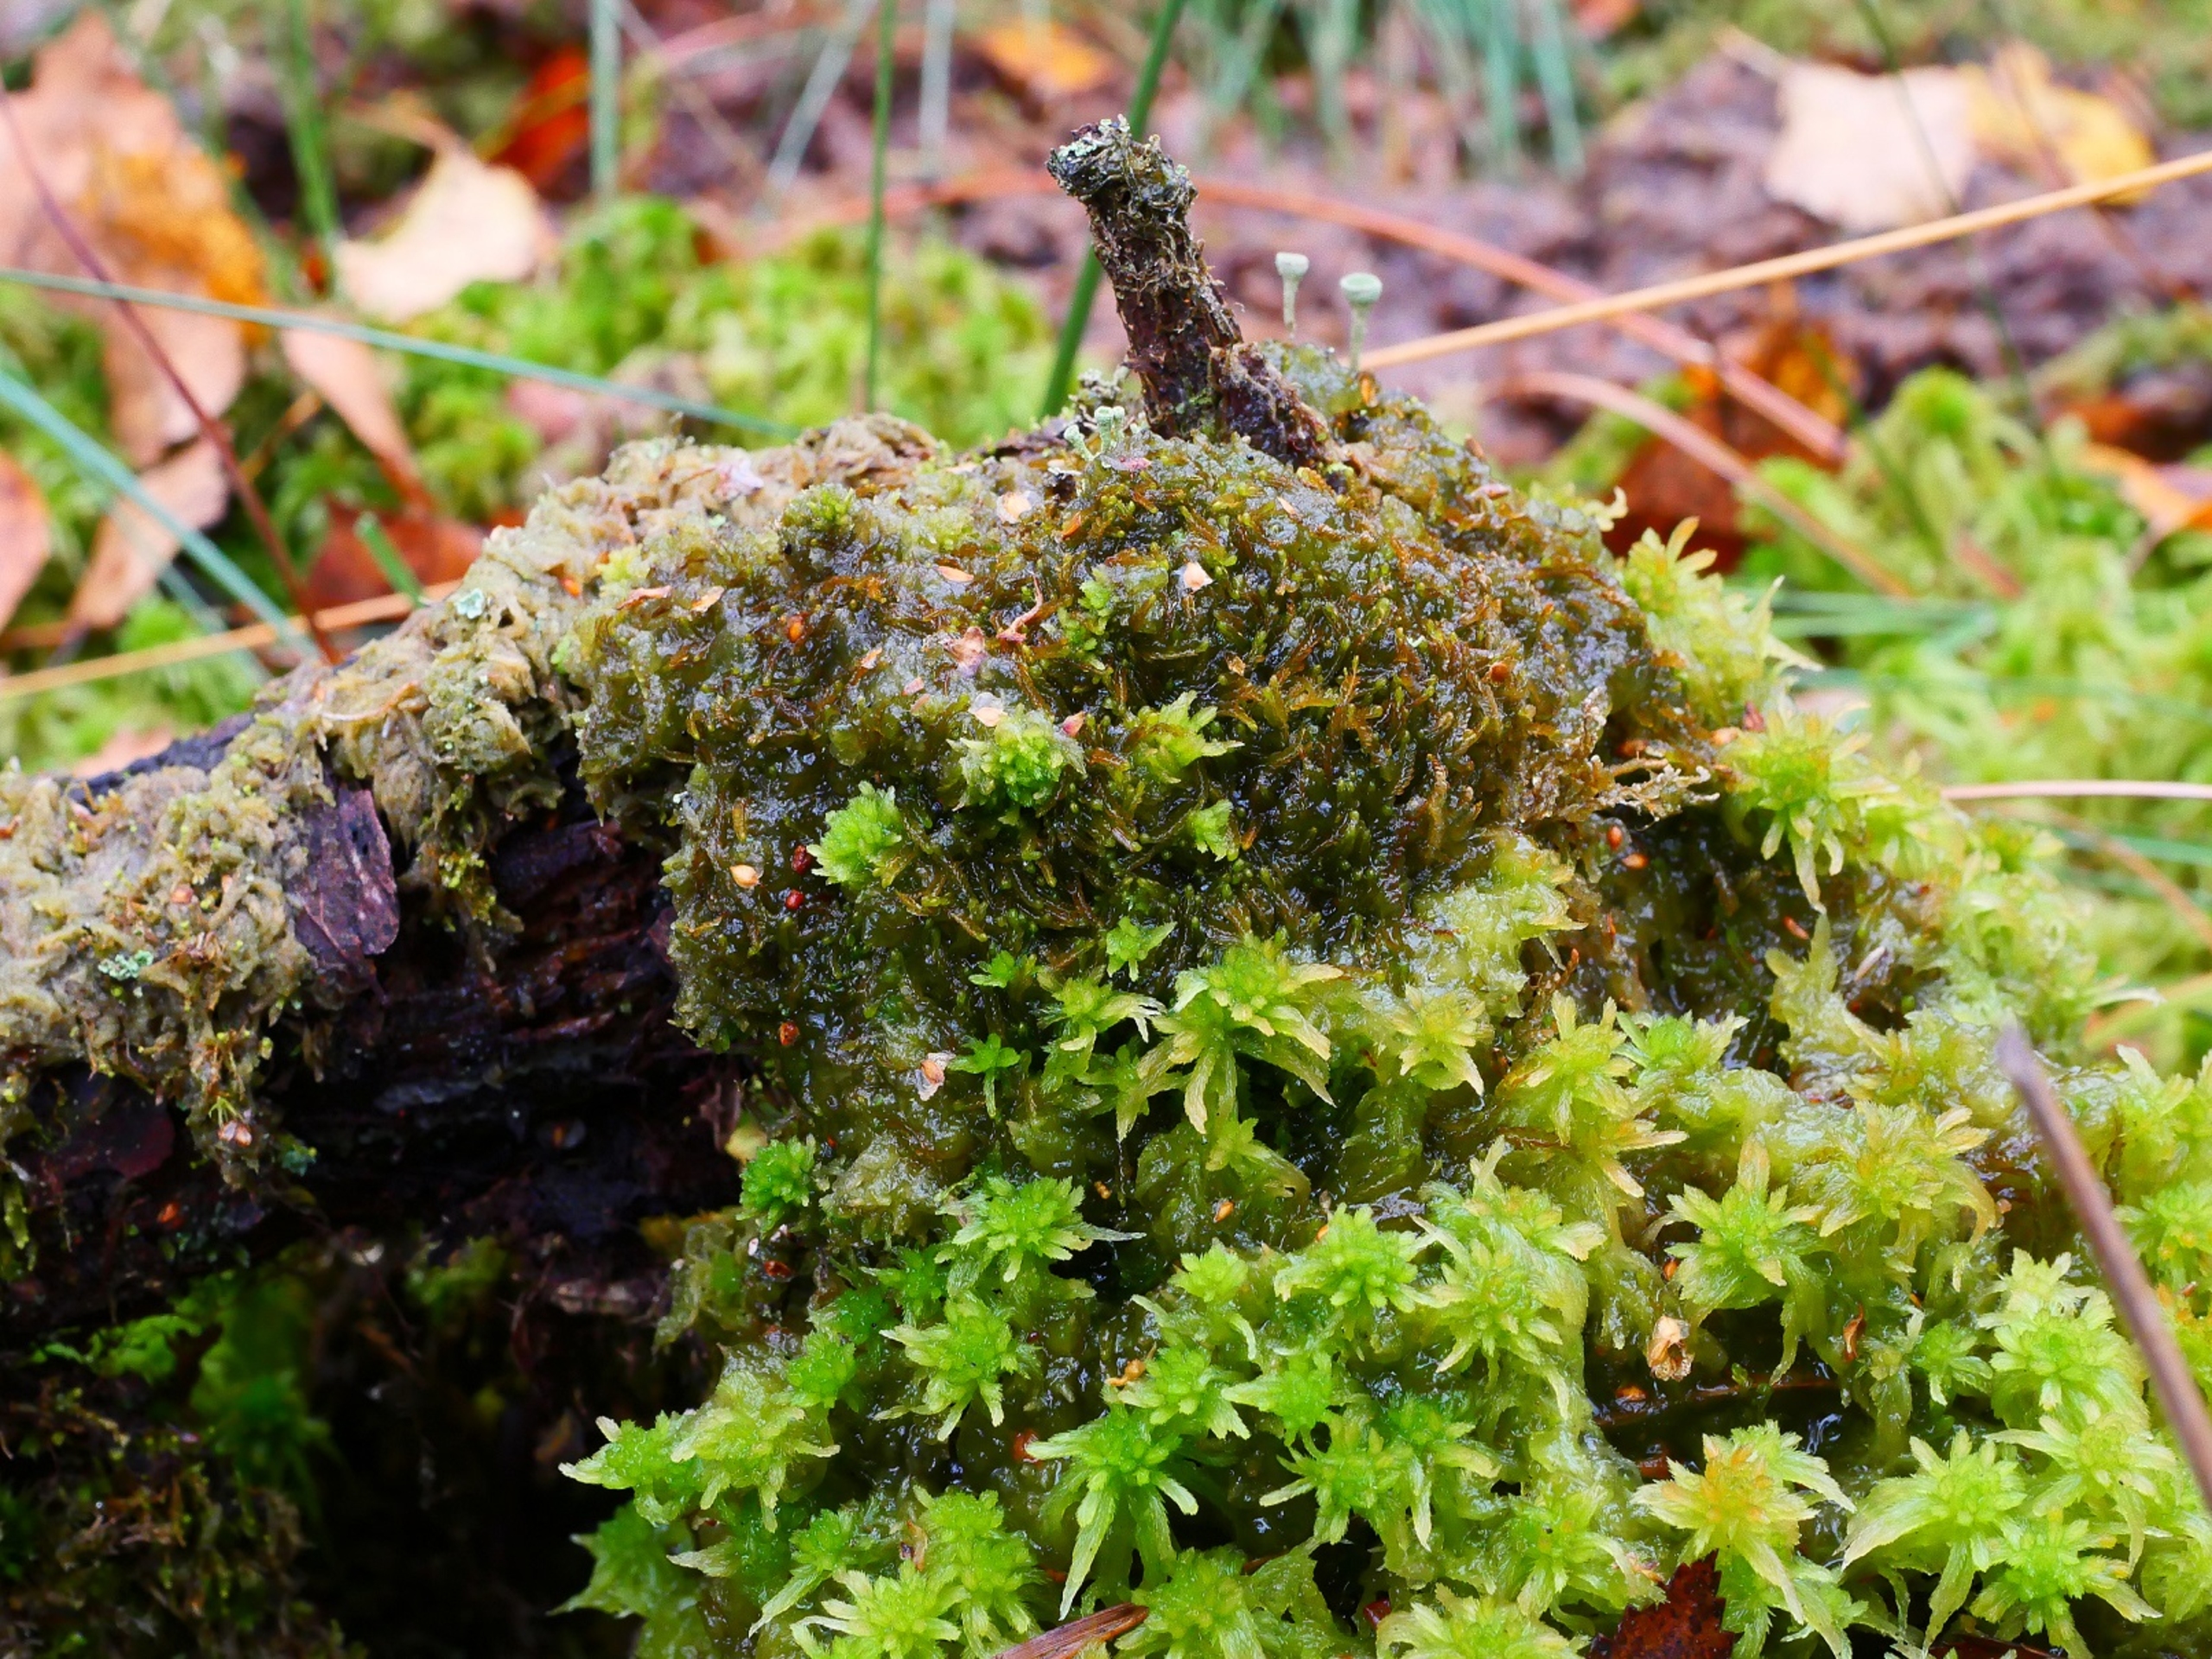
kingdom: Plantae
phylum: Marchantiophyta
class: Jungermanniopsida
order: Jungermanniales
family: Cephaloziaceae
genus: Odontoschisma
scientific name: Odontoschisma sphagni
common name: Almindelig flagelmos
